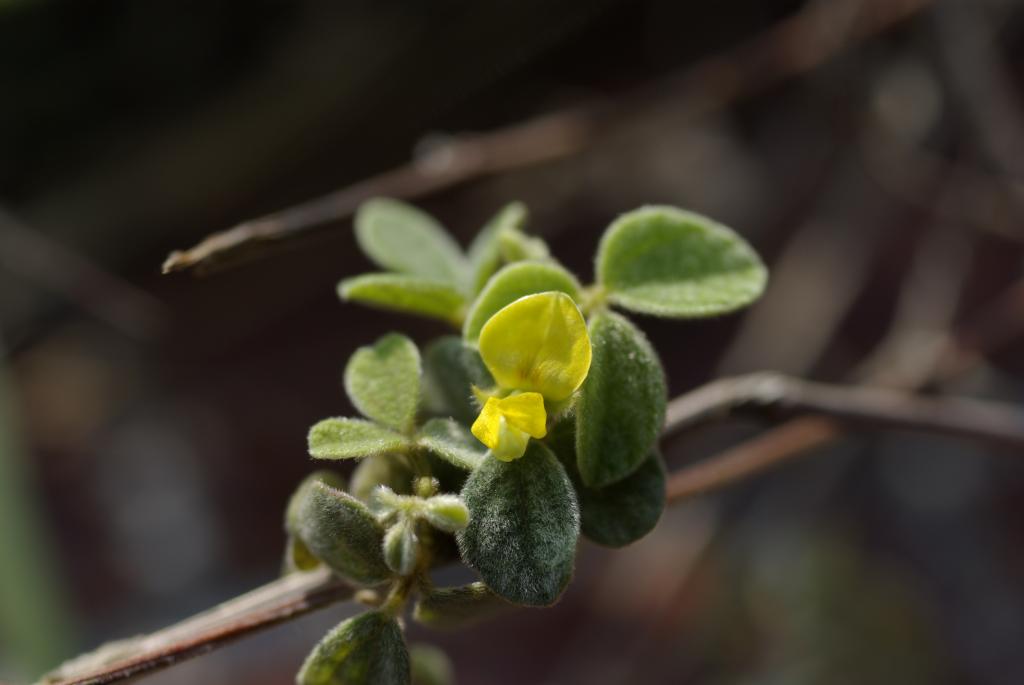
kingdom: Plantae
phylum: Tracheophyta
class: Magnoliopsida
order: Fabales
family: Fabaceae
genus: Cajanus
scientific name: Cajanus scarabaeoides
